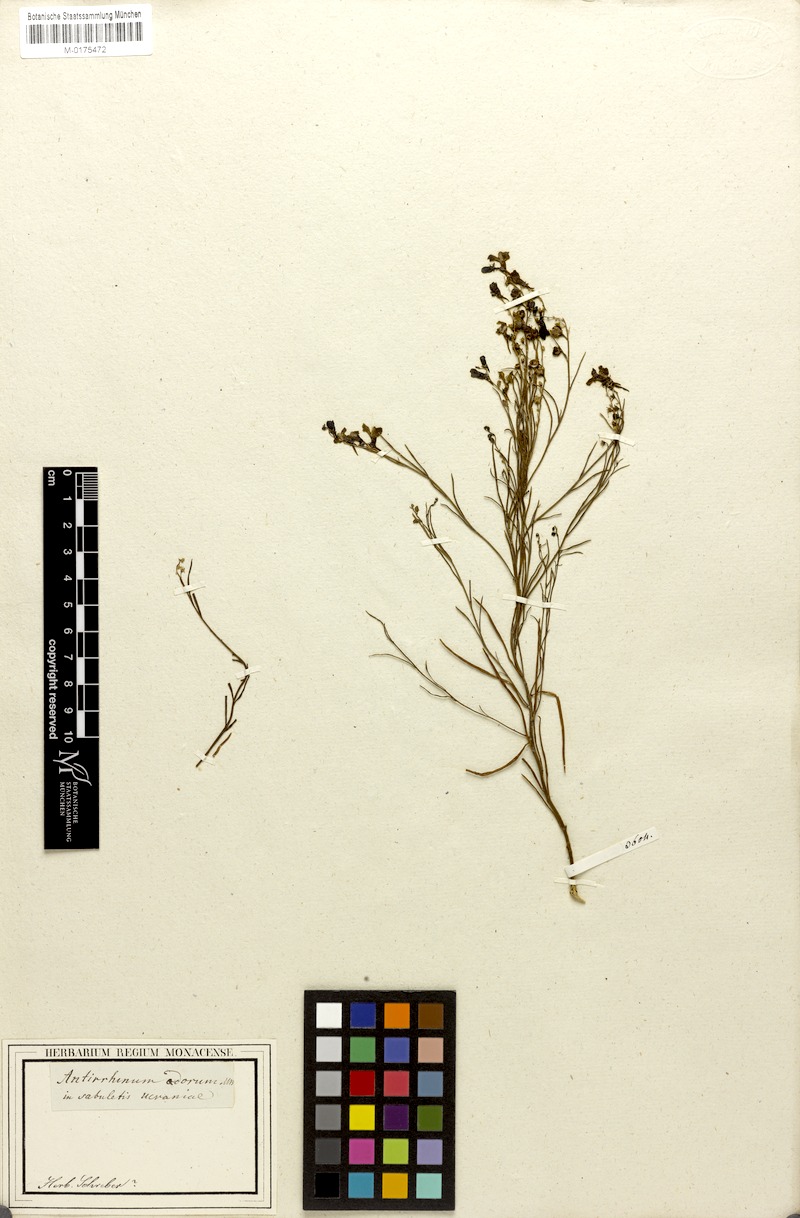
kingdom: Plantae
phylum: Tracheophyta
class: Magnoliopsida
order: Lamiales
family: Plantaginaceae
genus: Linaria
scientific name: Linaria odora
